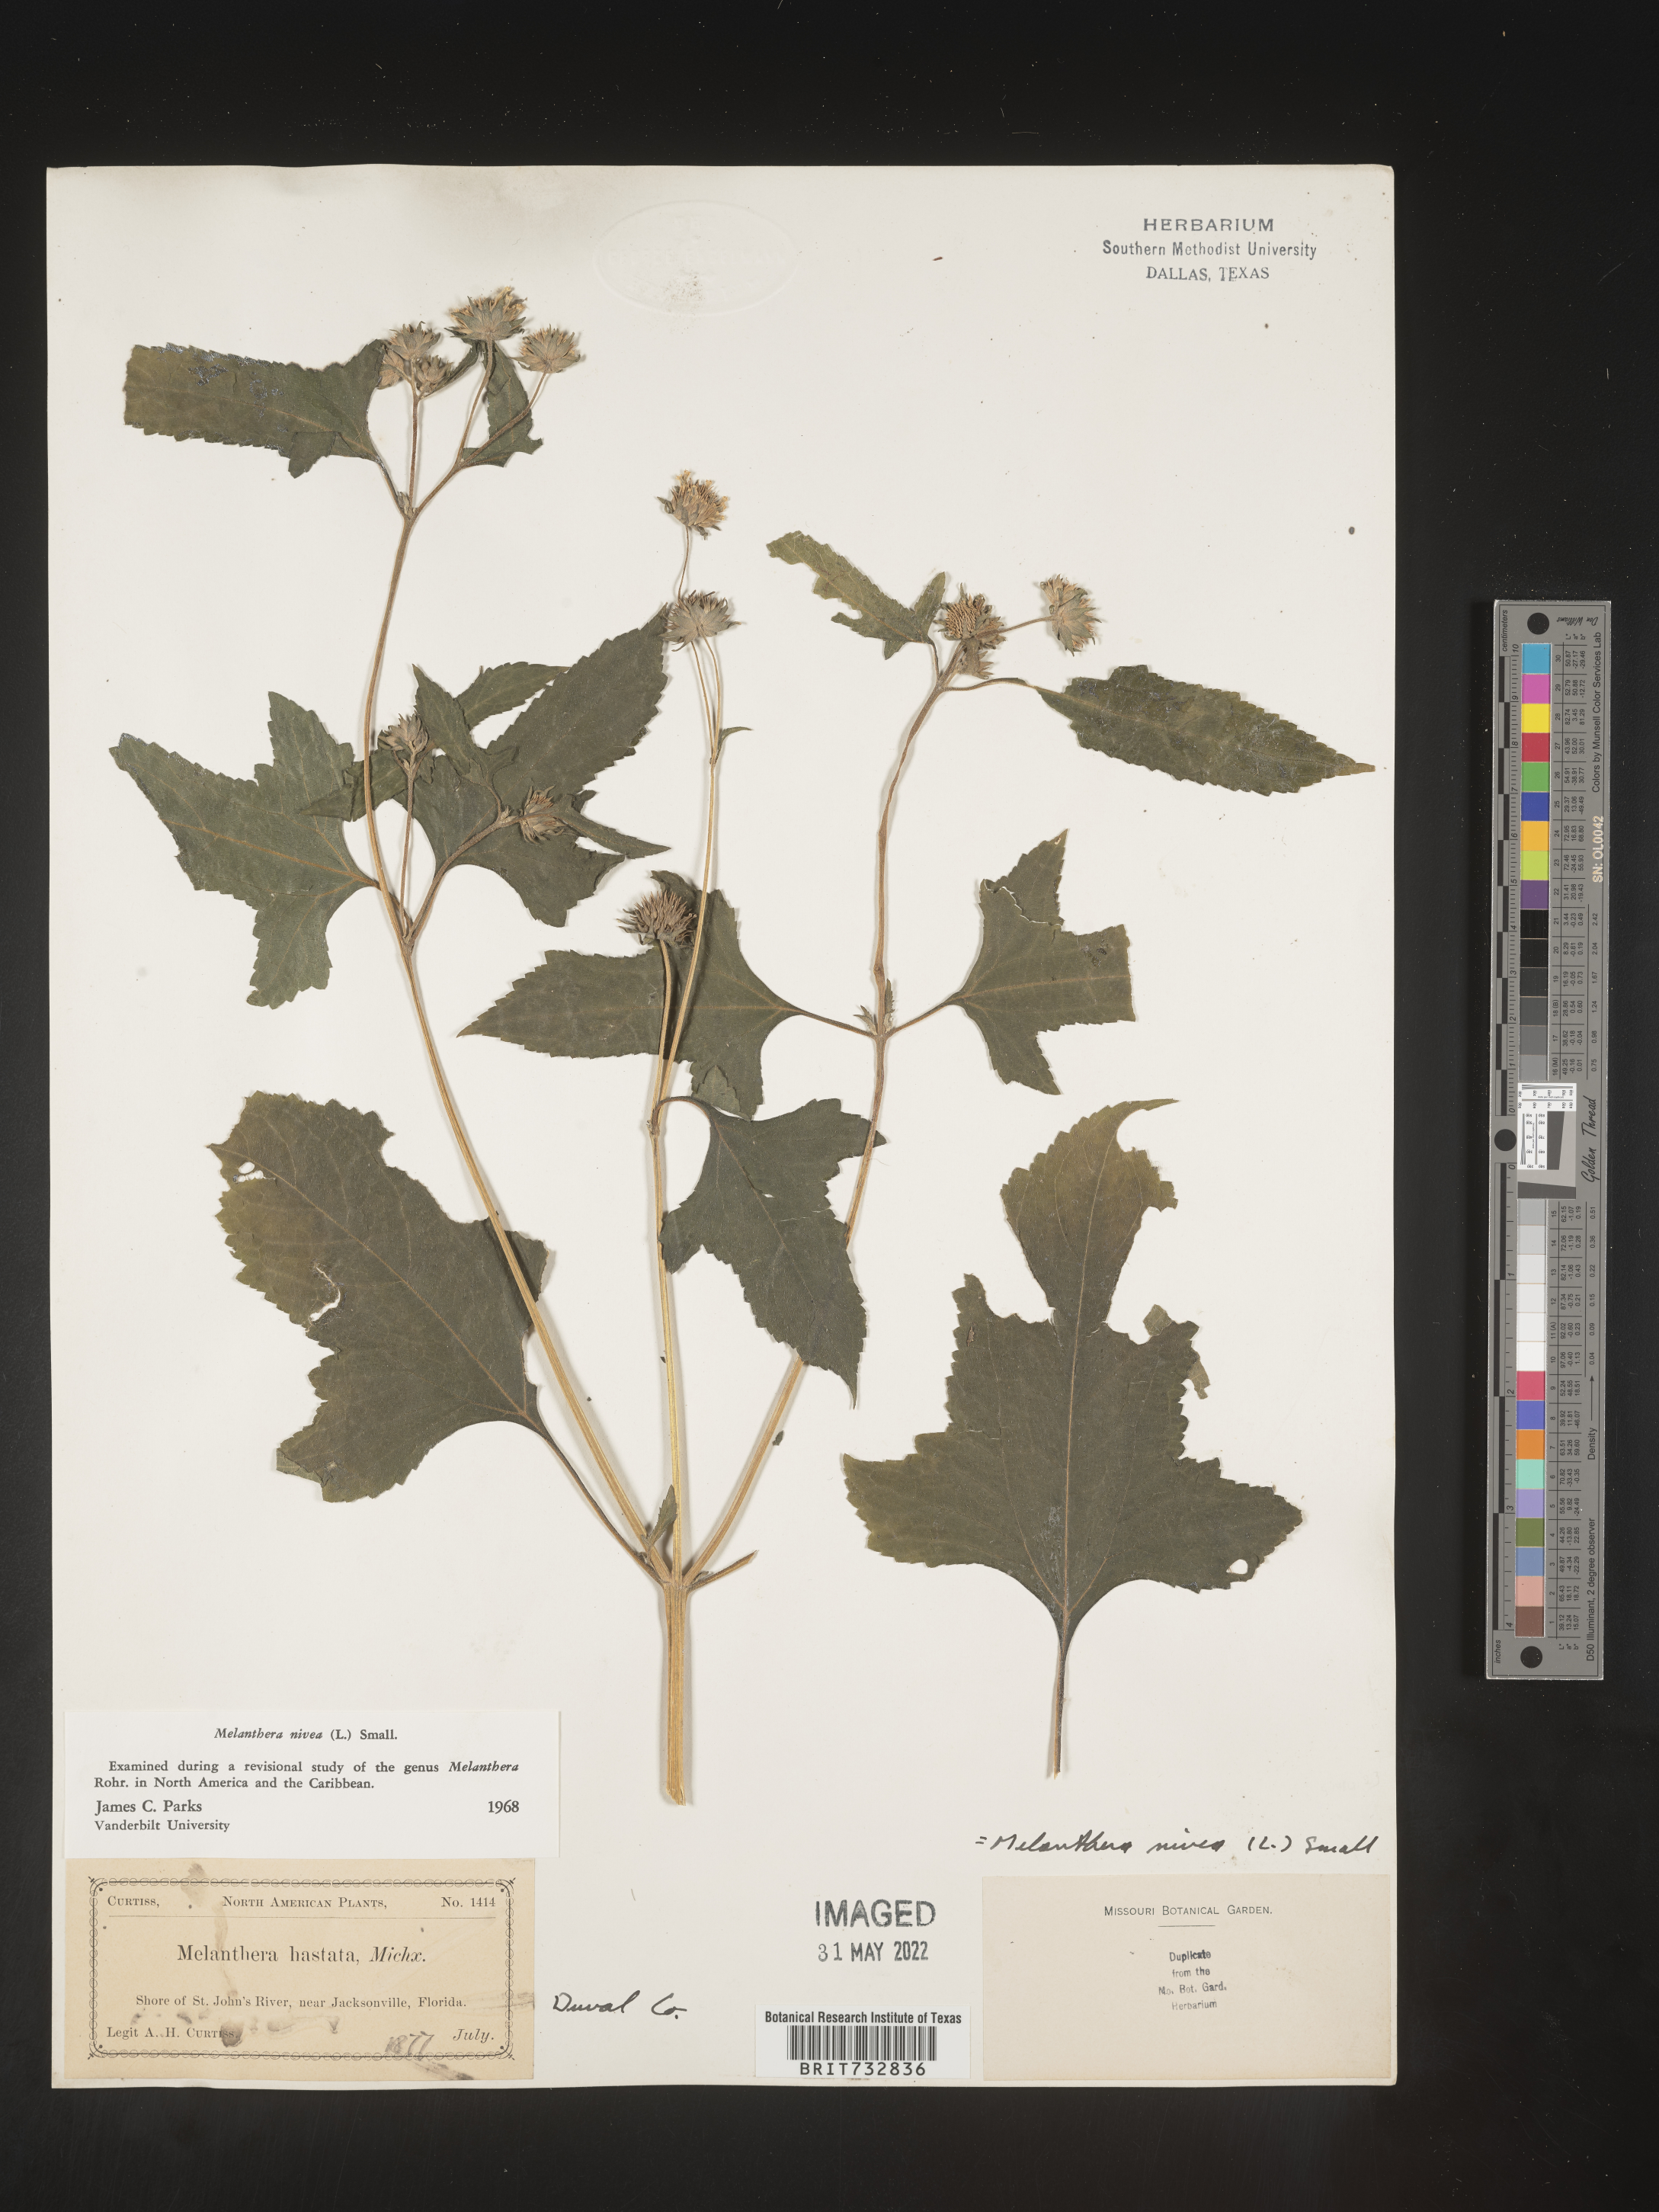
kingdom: Plantae
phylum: Tracheophyta
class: Magnoliopsida
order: Asterales
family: Asteraceae
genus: Melanthera
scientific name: Melanthera nivea
